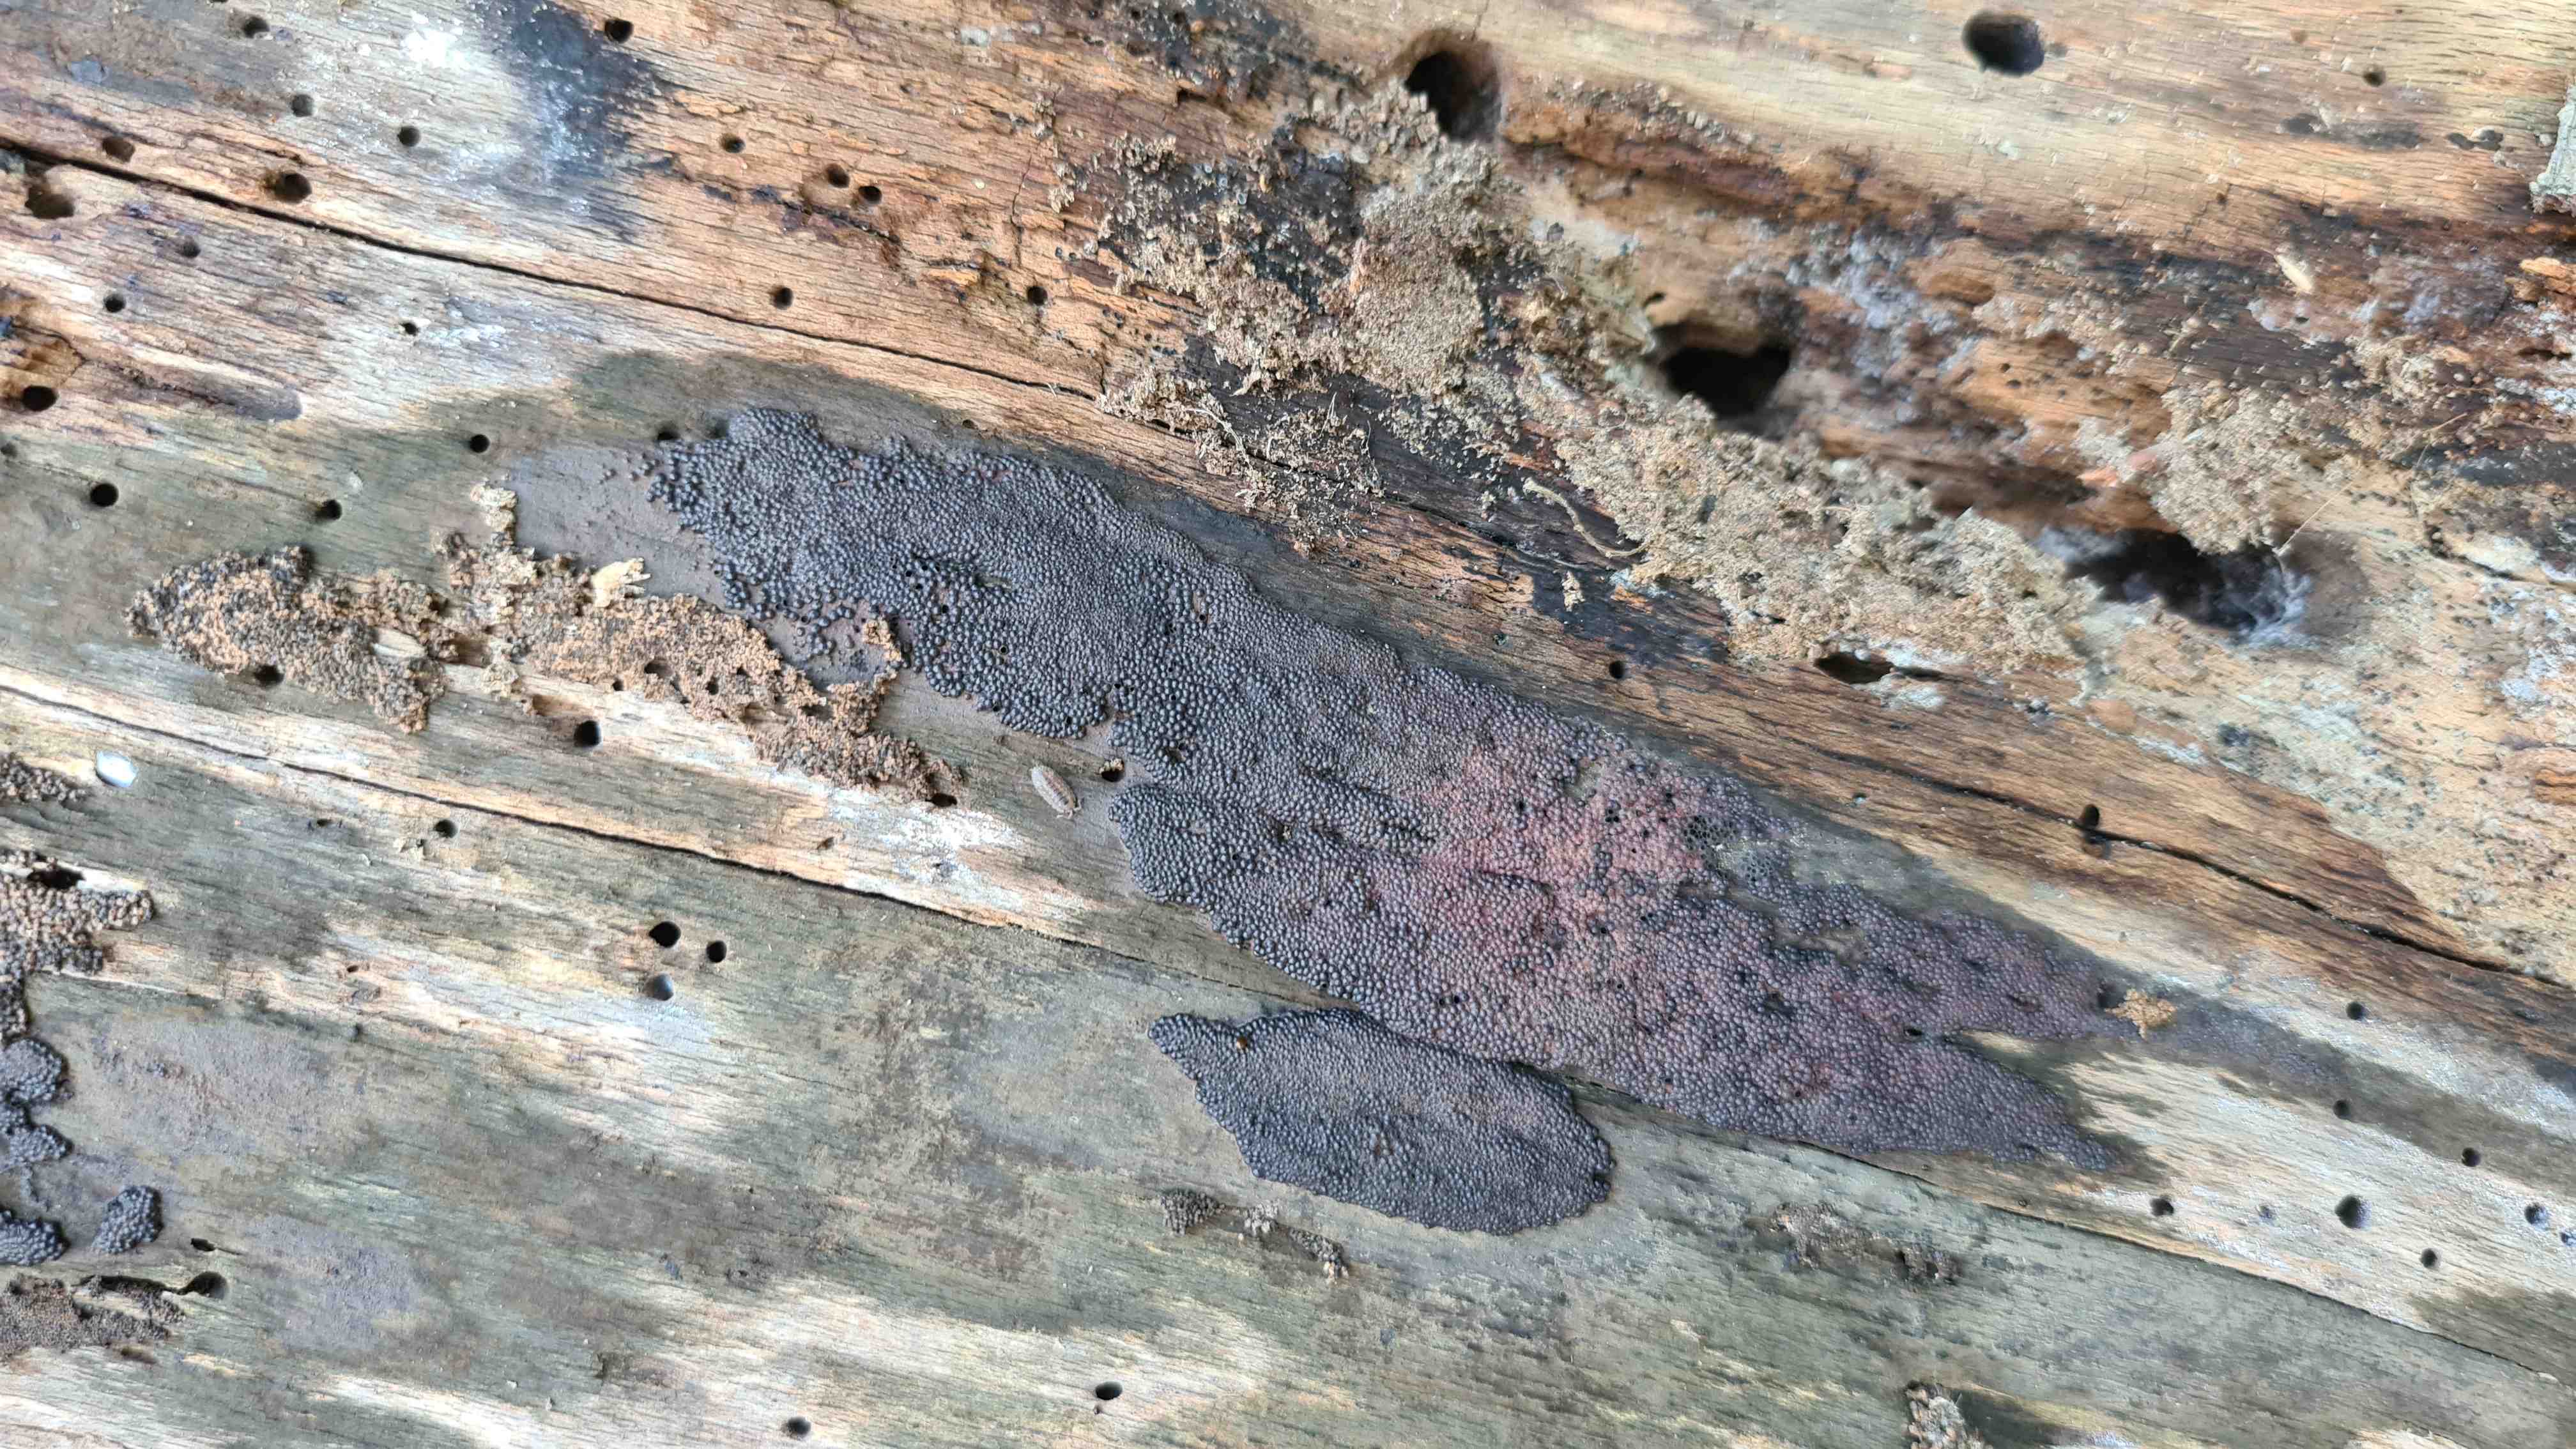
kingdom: Fungi
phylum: Ascomycota
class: Sordariomycetes
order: Xylariales
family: Hypoxylaceae
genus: Hypoxylon
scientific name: Hypoxylon macrocarpum
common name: skorpe-kulbær
